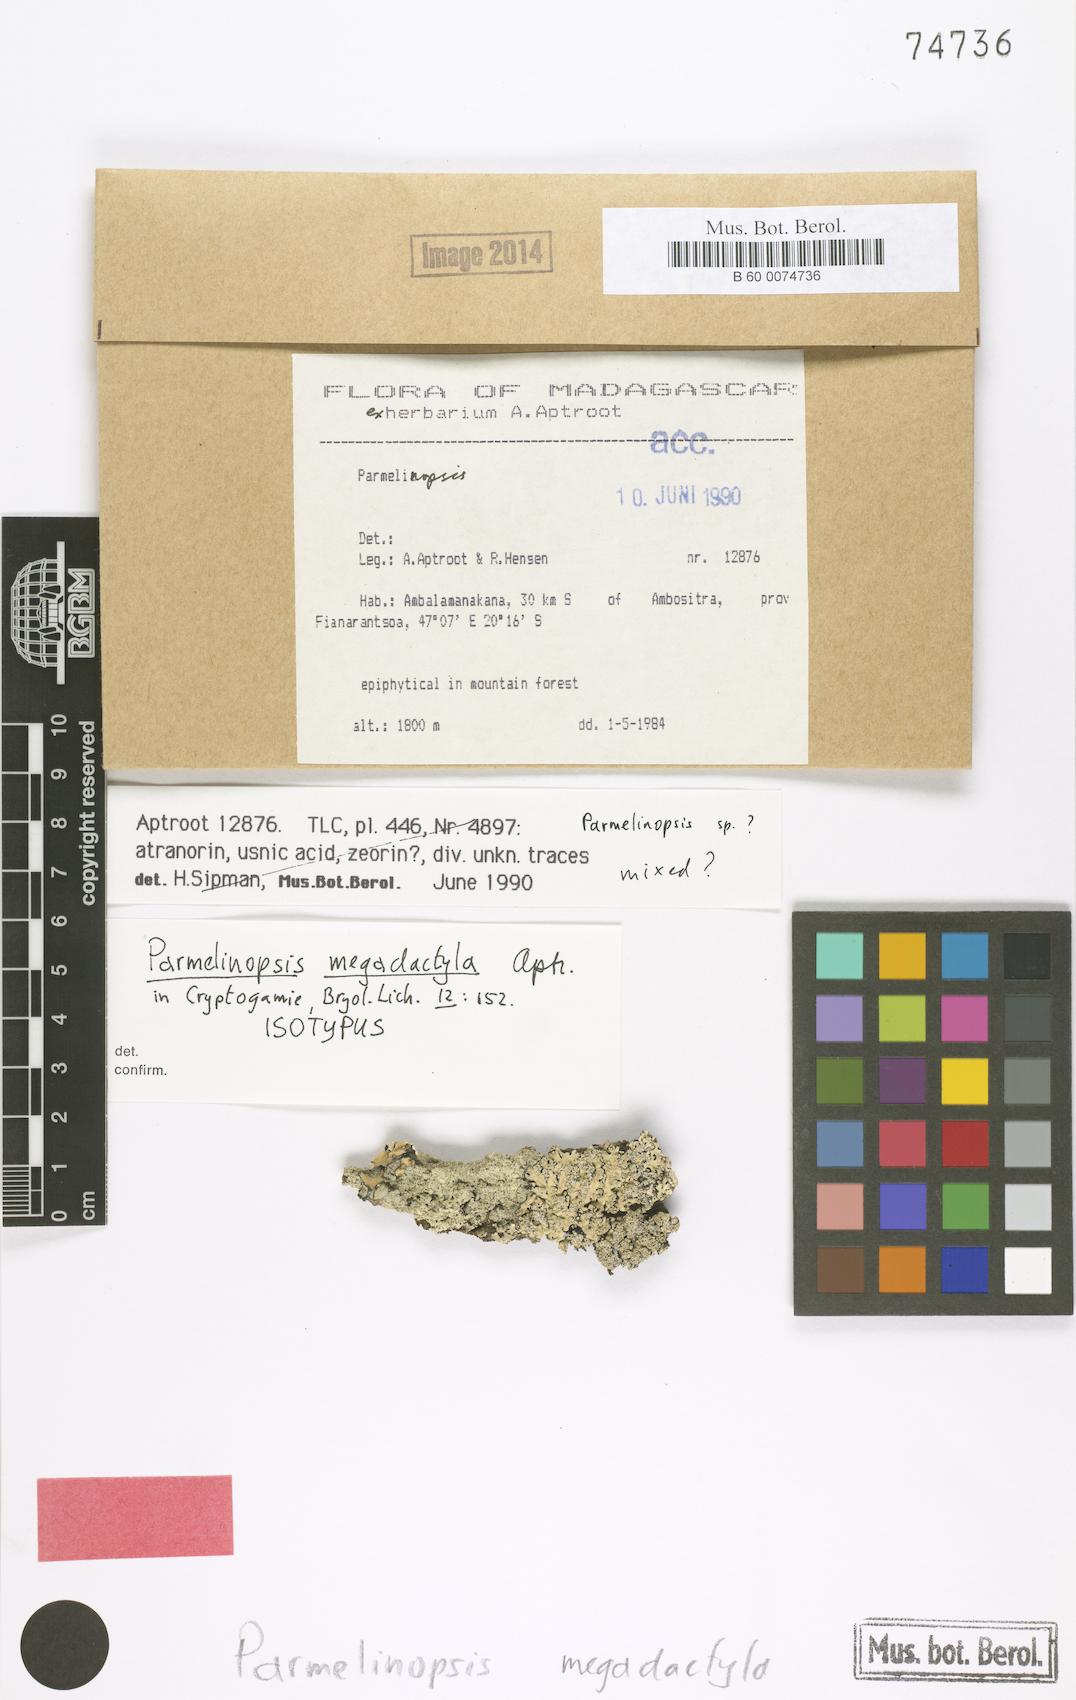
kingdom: Fungi
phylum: Ascomycota
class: Lecanoromycetes
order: Lecanorales
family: Parmeliaceae
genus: Hypotrachyna
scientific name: Hypotrachyna megadactyla
